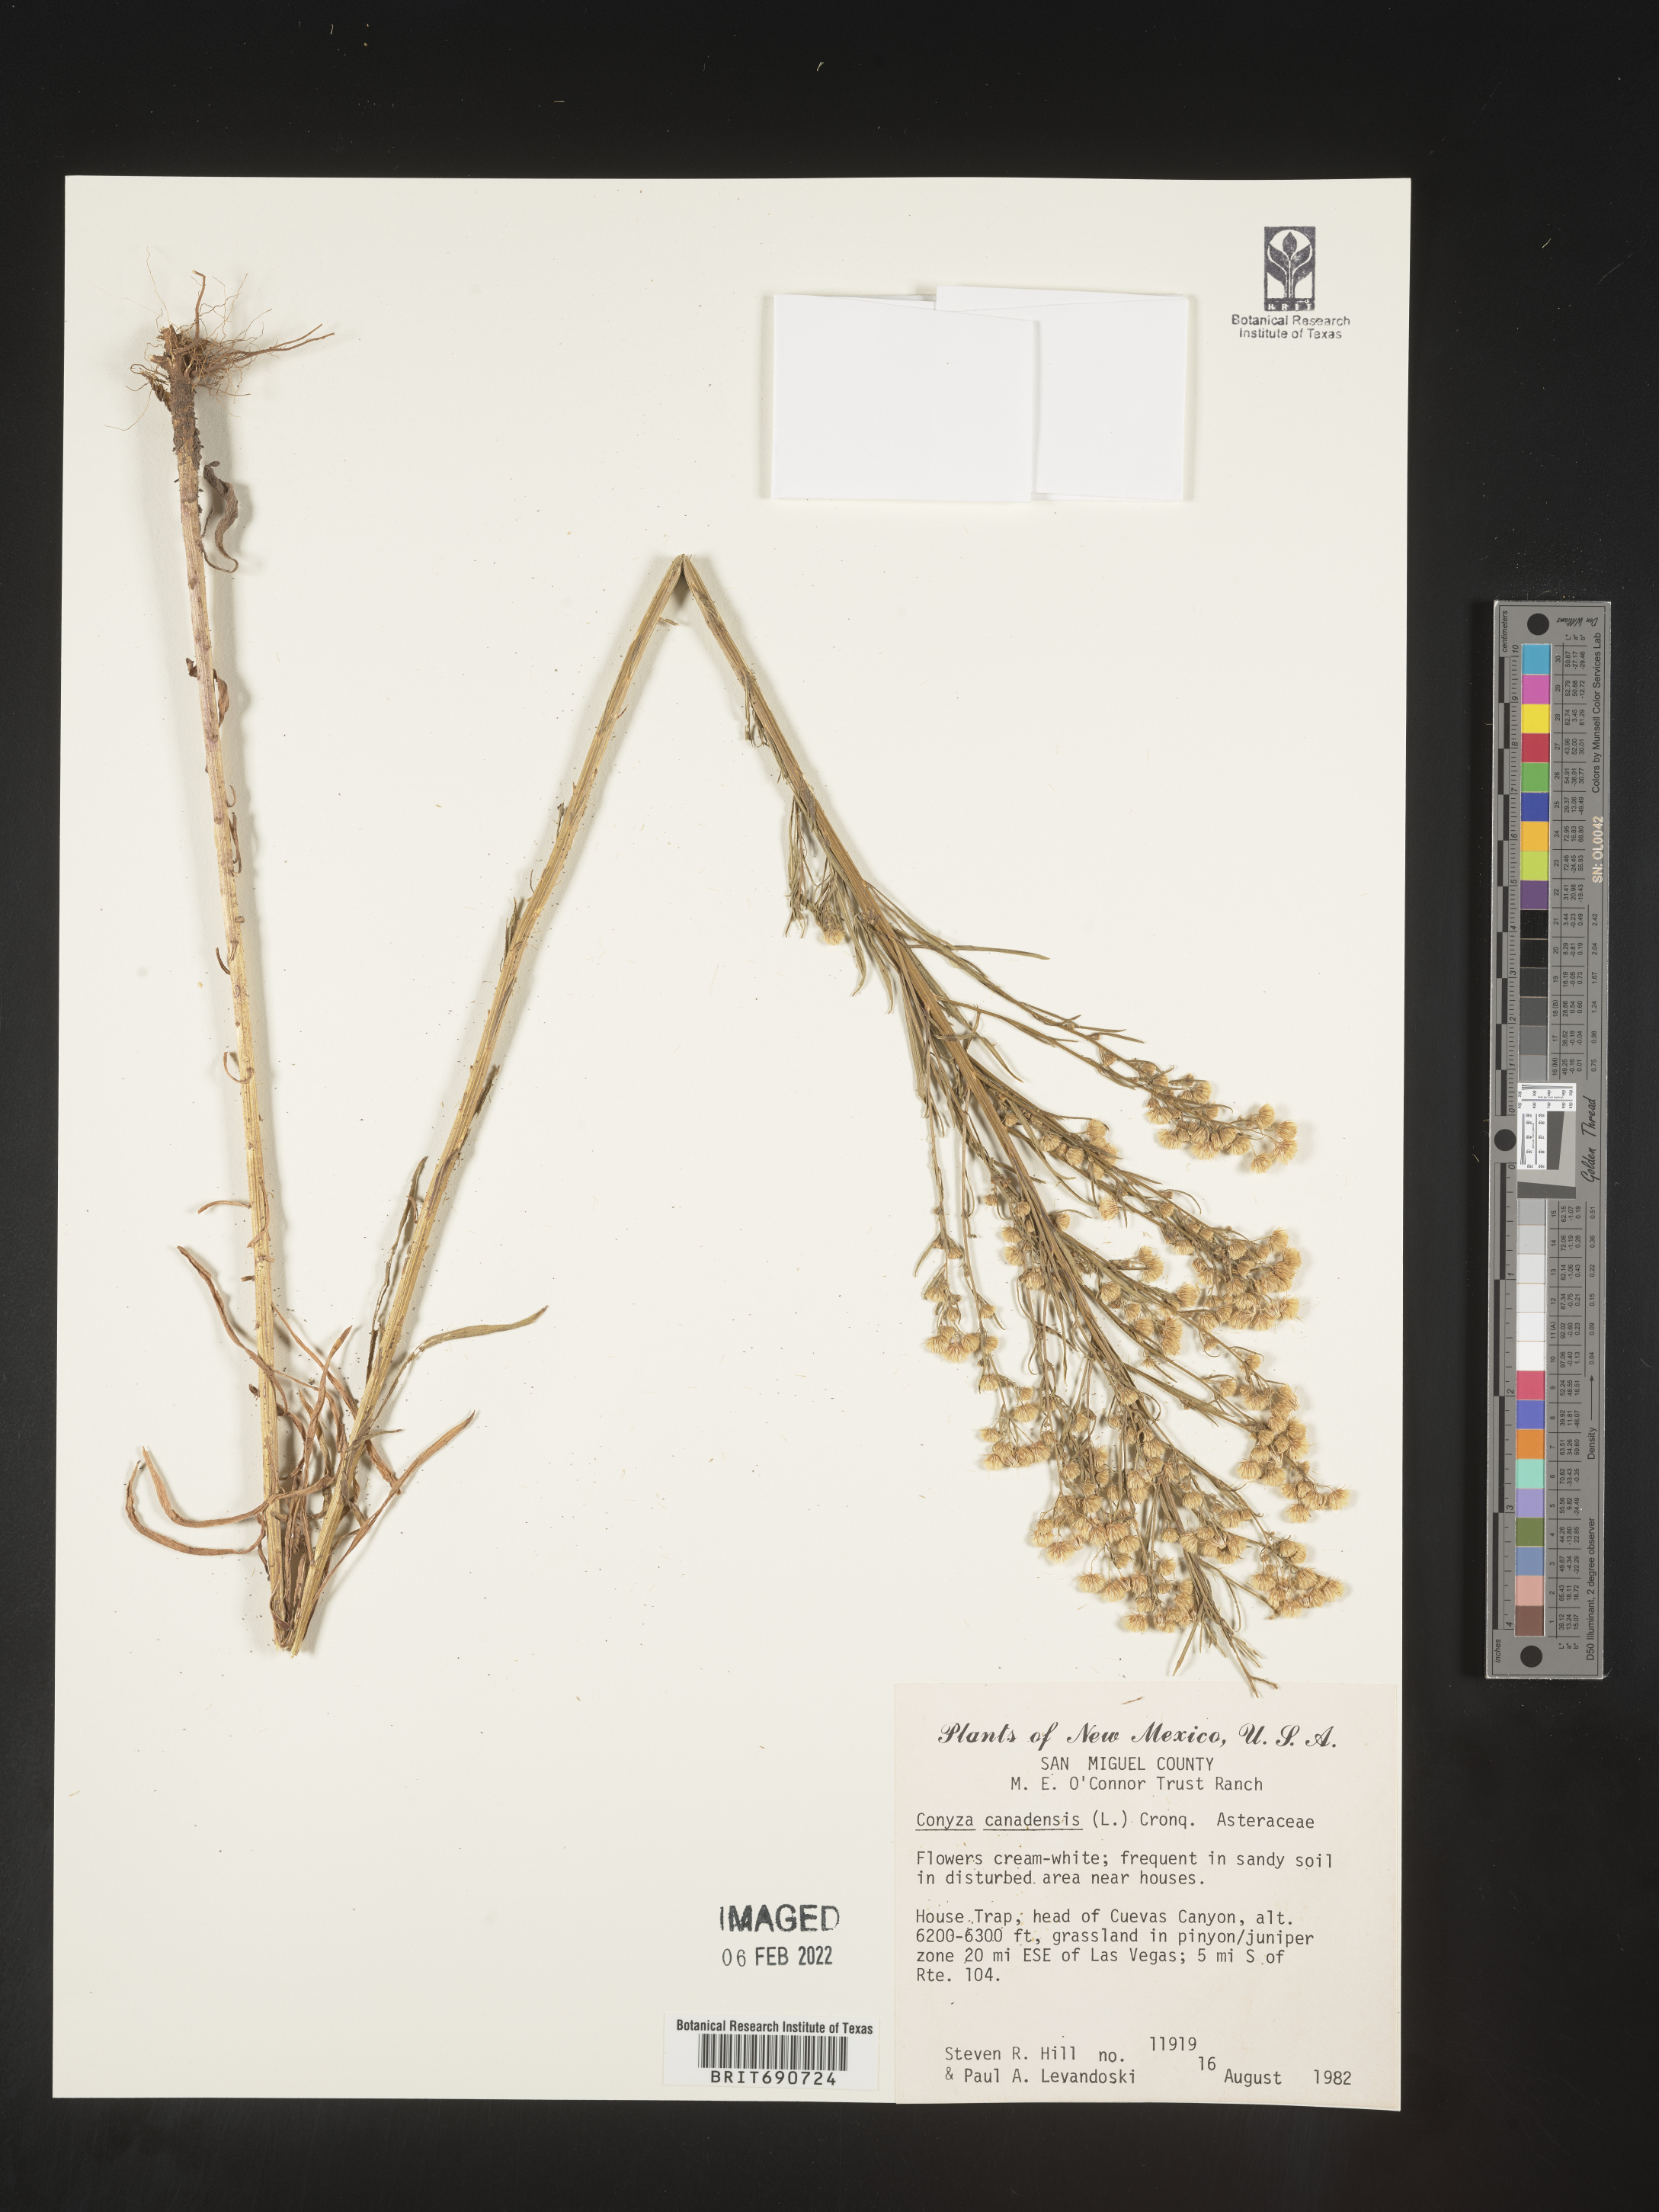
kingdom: Plantae
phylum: Tracheophyta
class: Magnoliopsida
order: Asterales
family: Asteraceae
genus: Erigeron
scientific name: Erigeron canadensis
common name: Canadian fleabane
